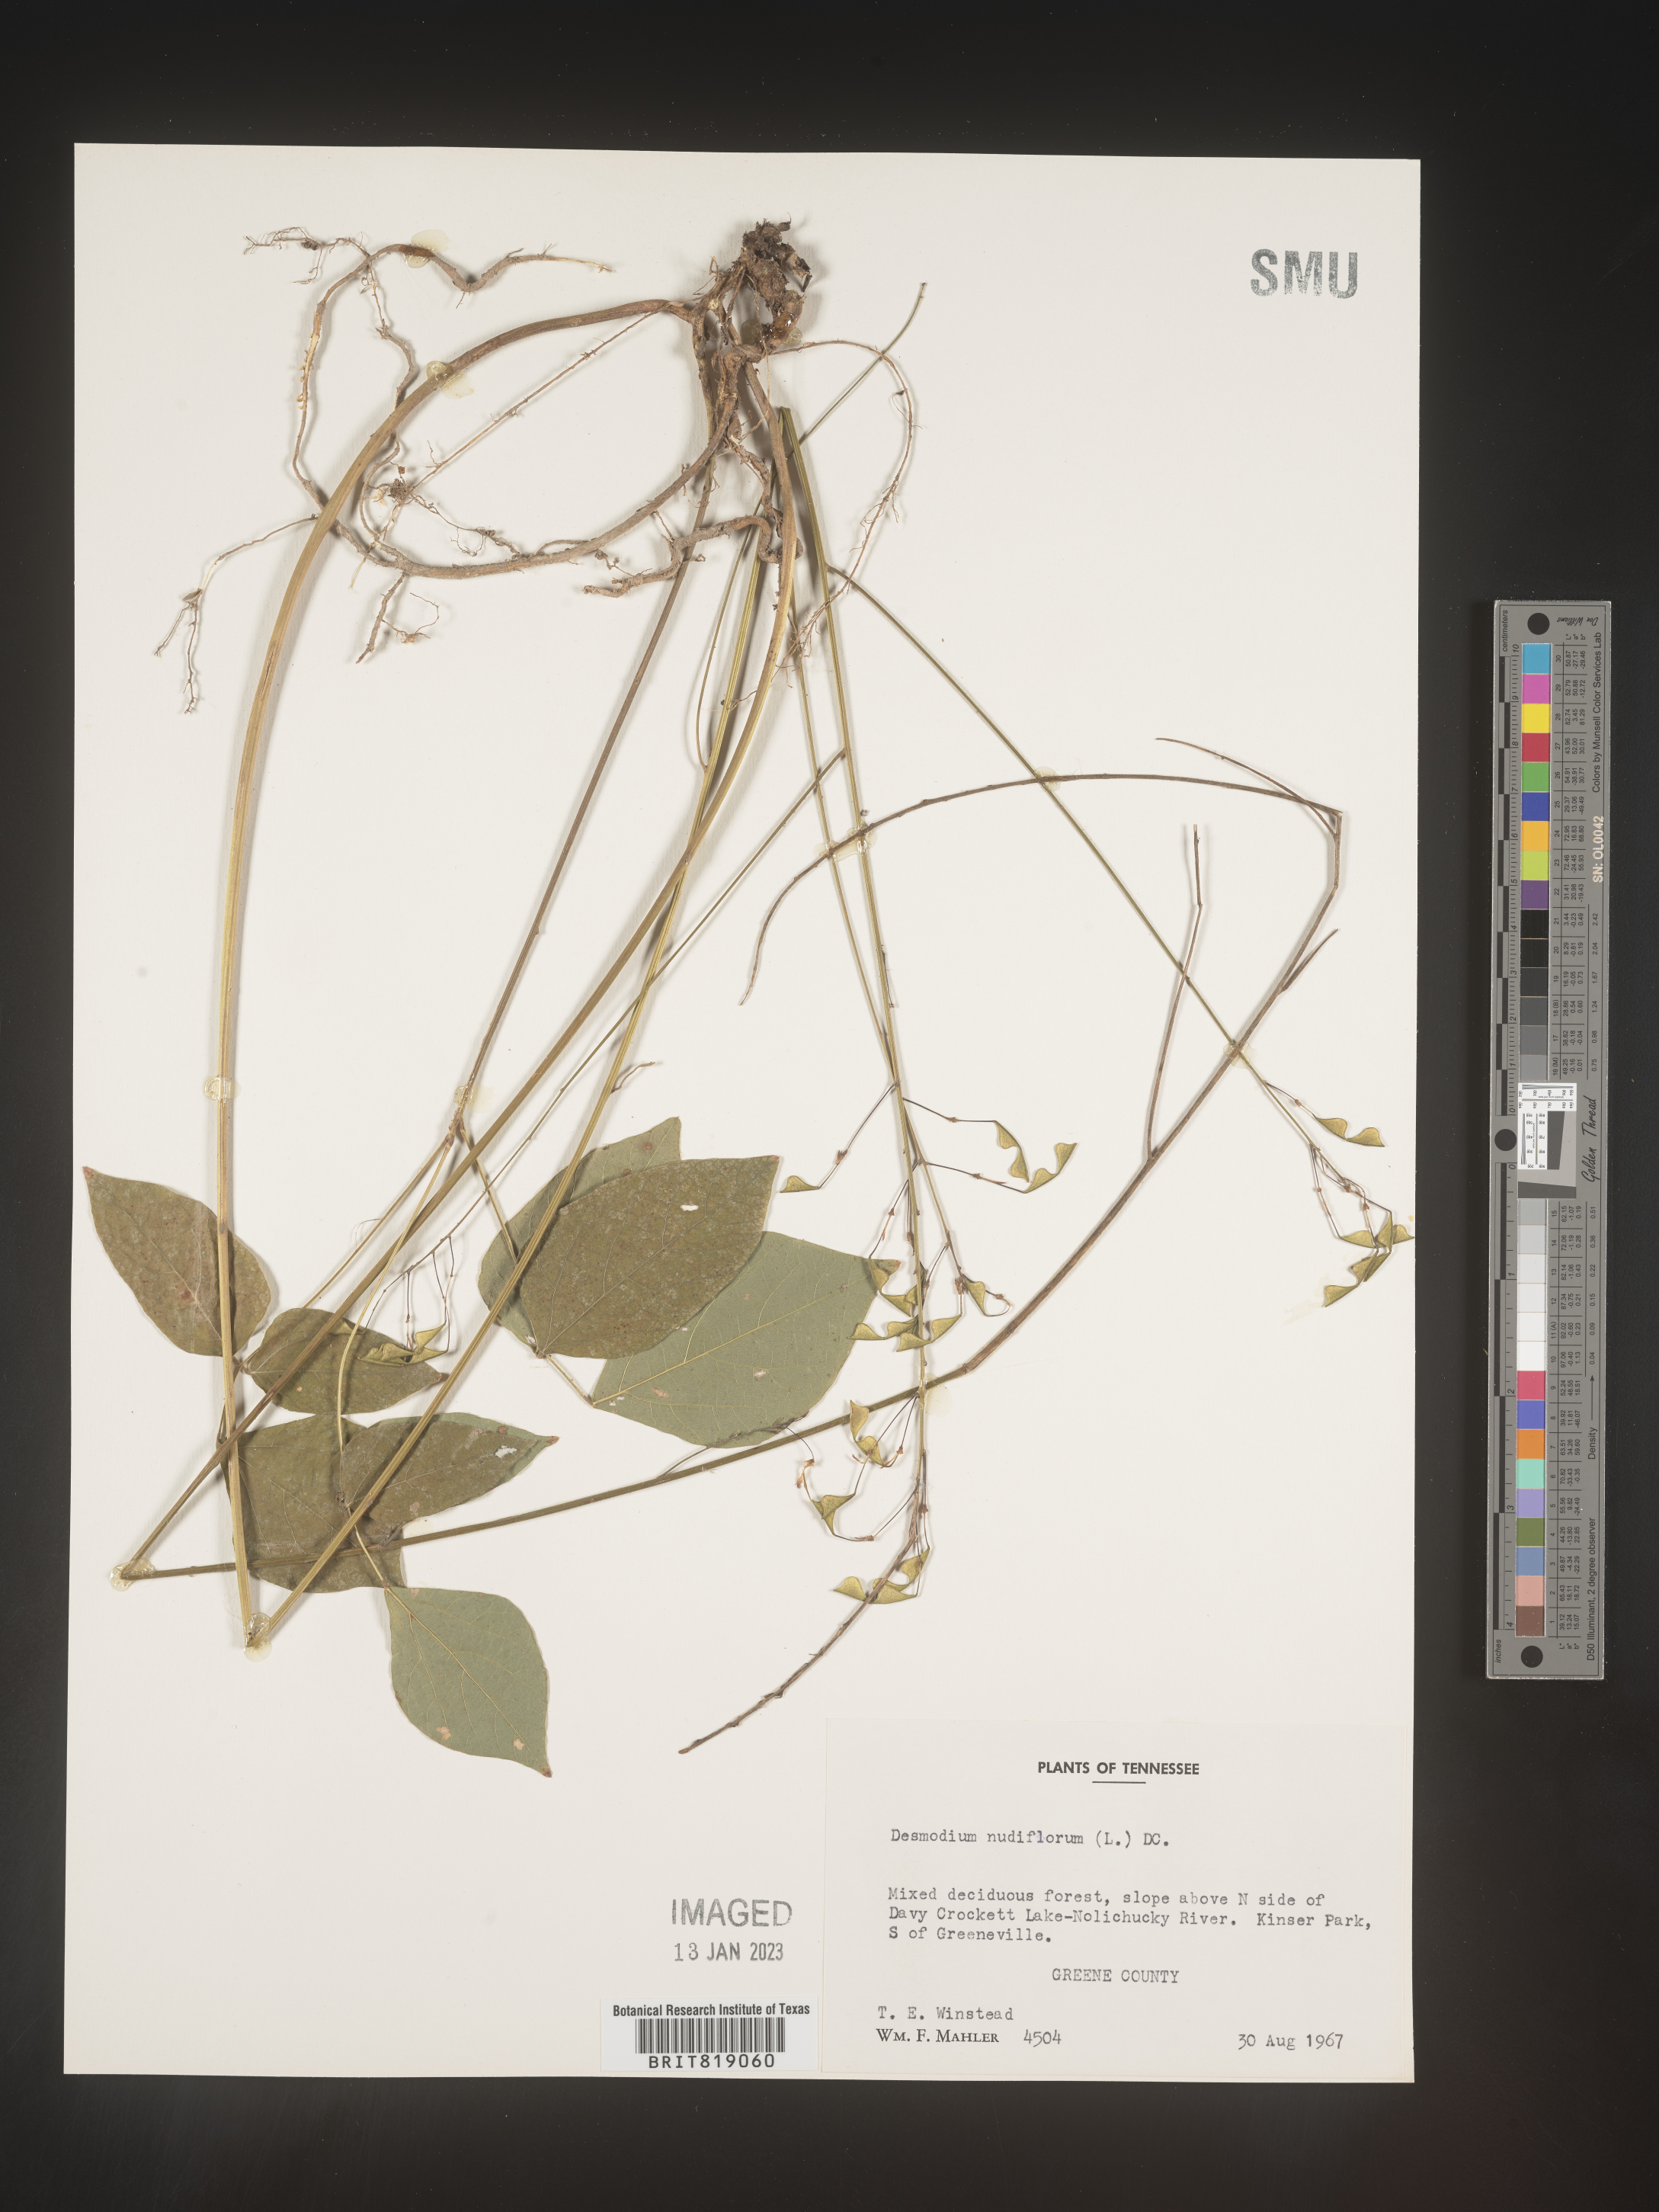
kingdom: Plantae
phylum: Tracheophyta
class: Magnoliopsida
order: Fabales
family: Fabaceae
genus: Hylodesmum
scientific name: Hylodesmum nudiflorum
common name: Bare-stemmed tick-trefoil
